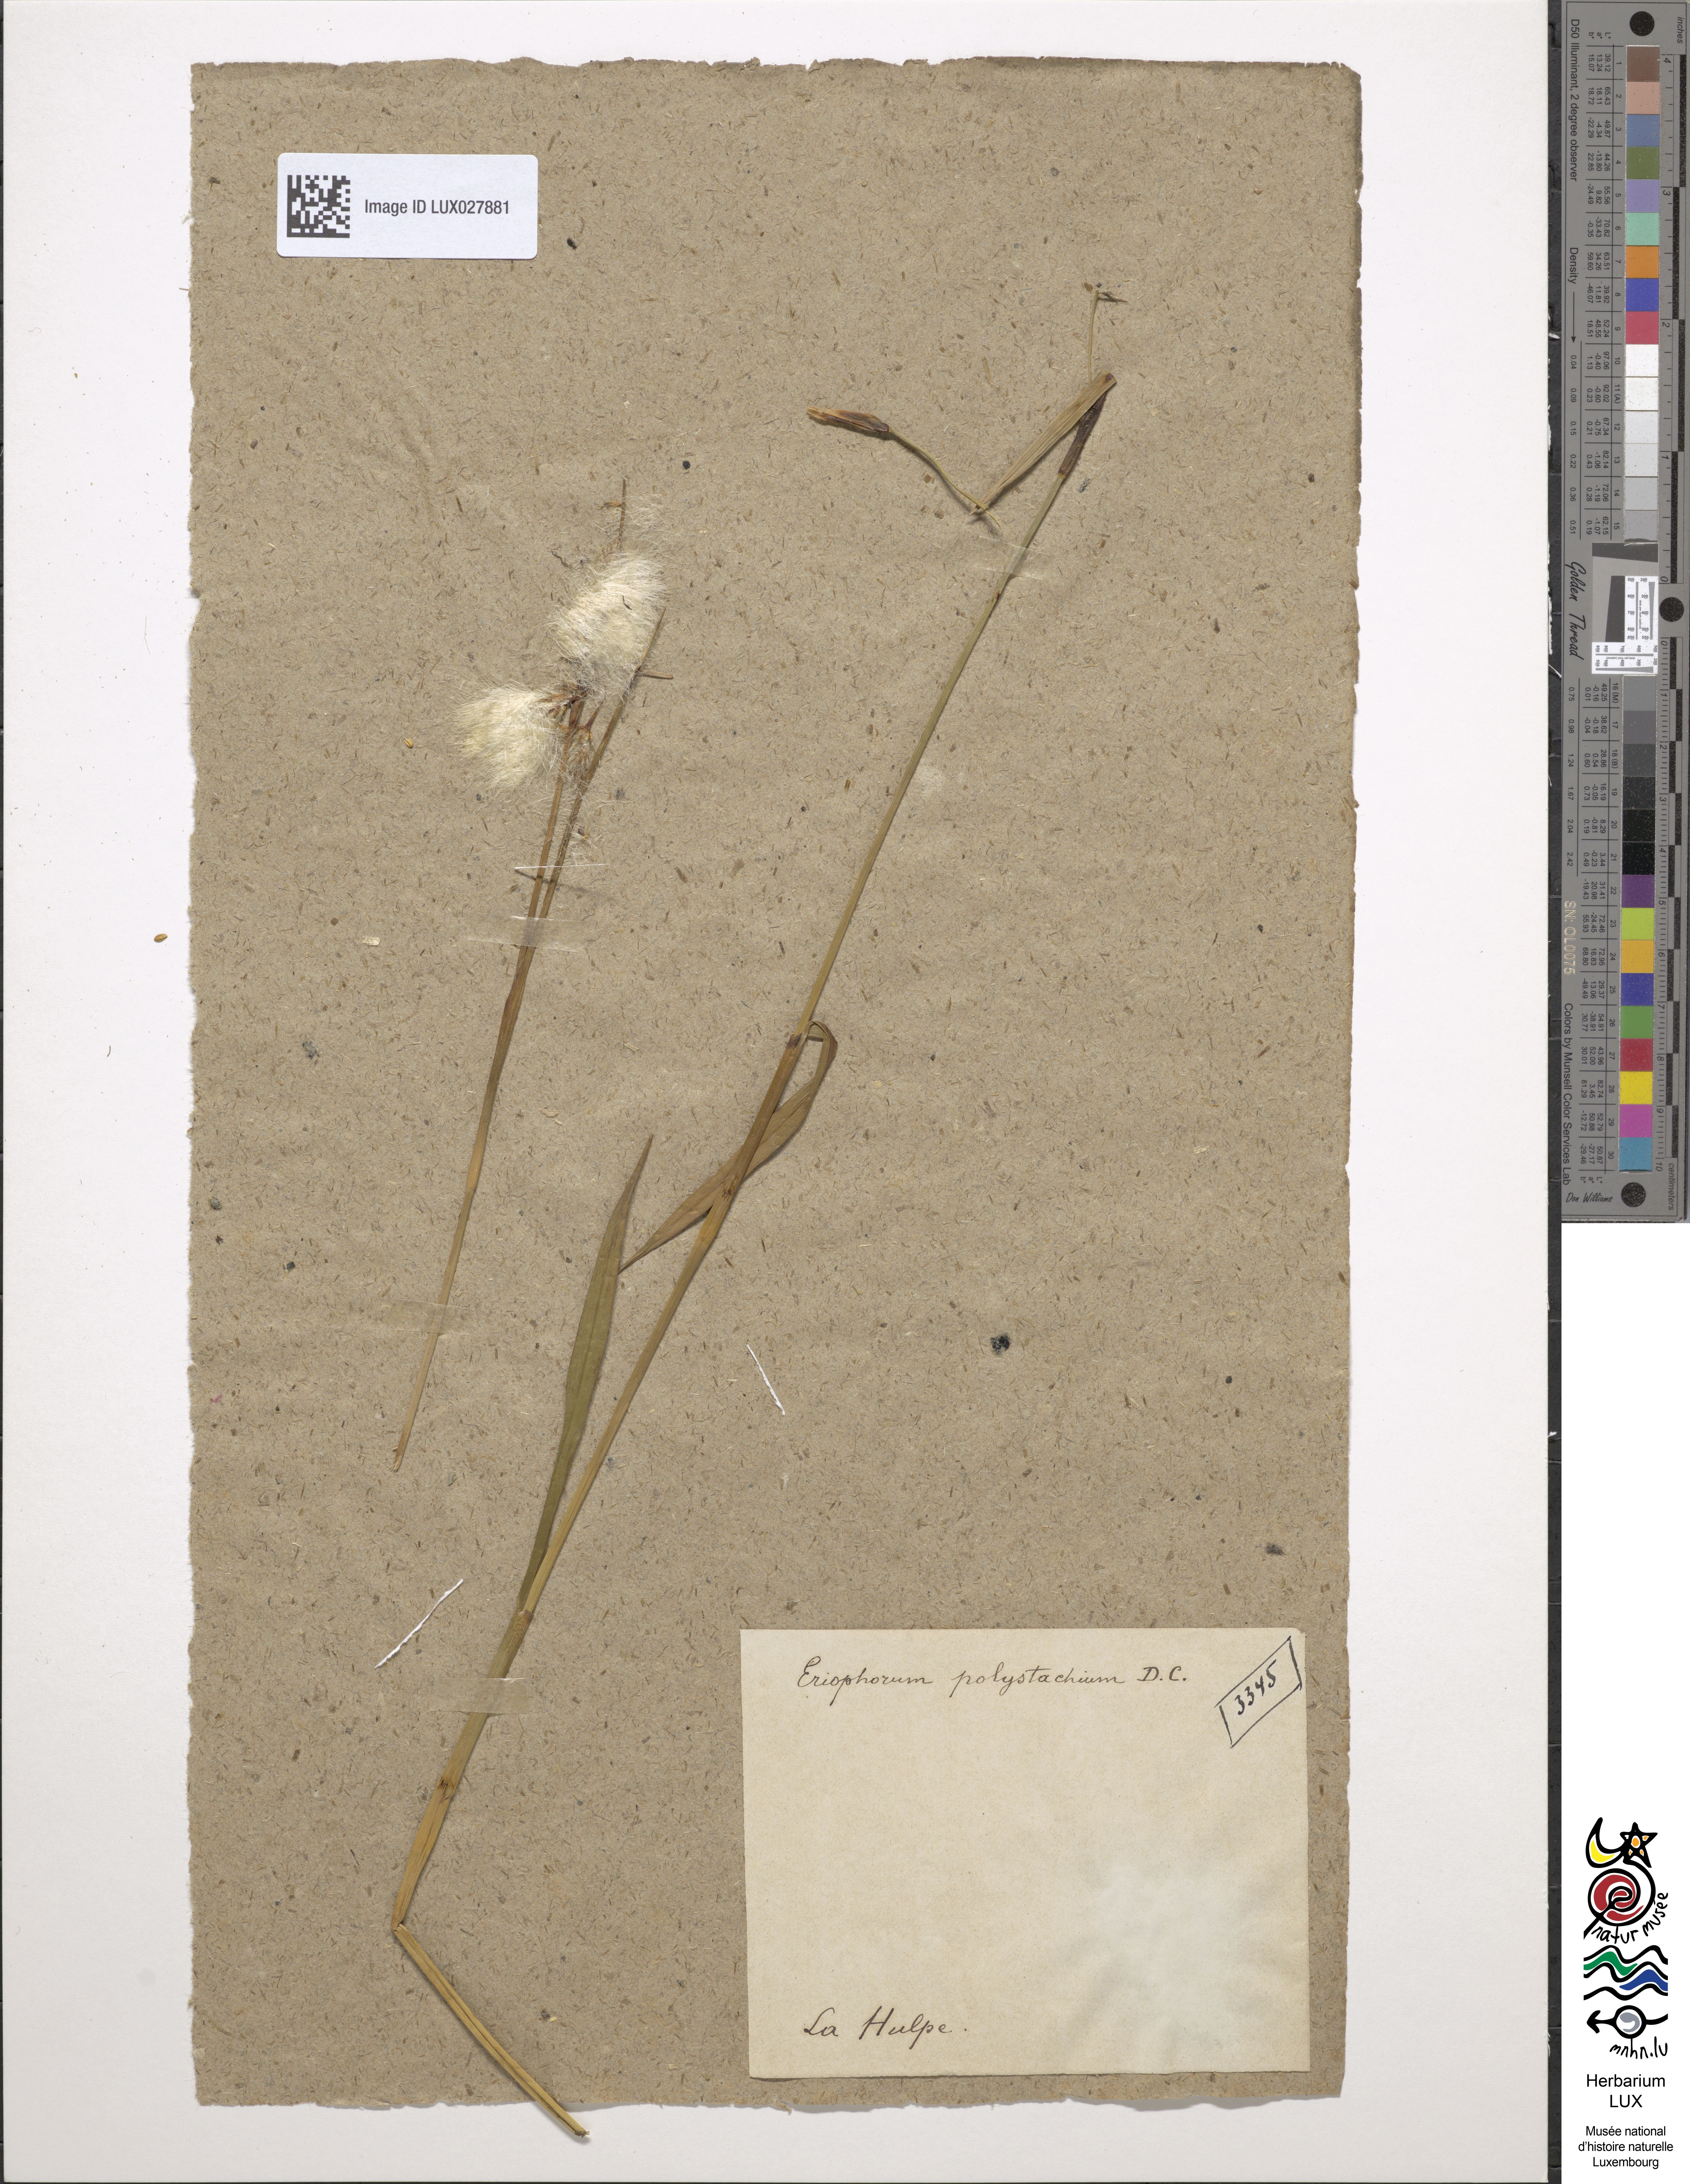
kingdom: Plantae
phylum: Tracheophyta
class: Liliopsida
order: Poales
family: Cyperaceae
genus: Eriophorum
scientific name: Eriophorum angustifolium
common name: Common cottongrass
